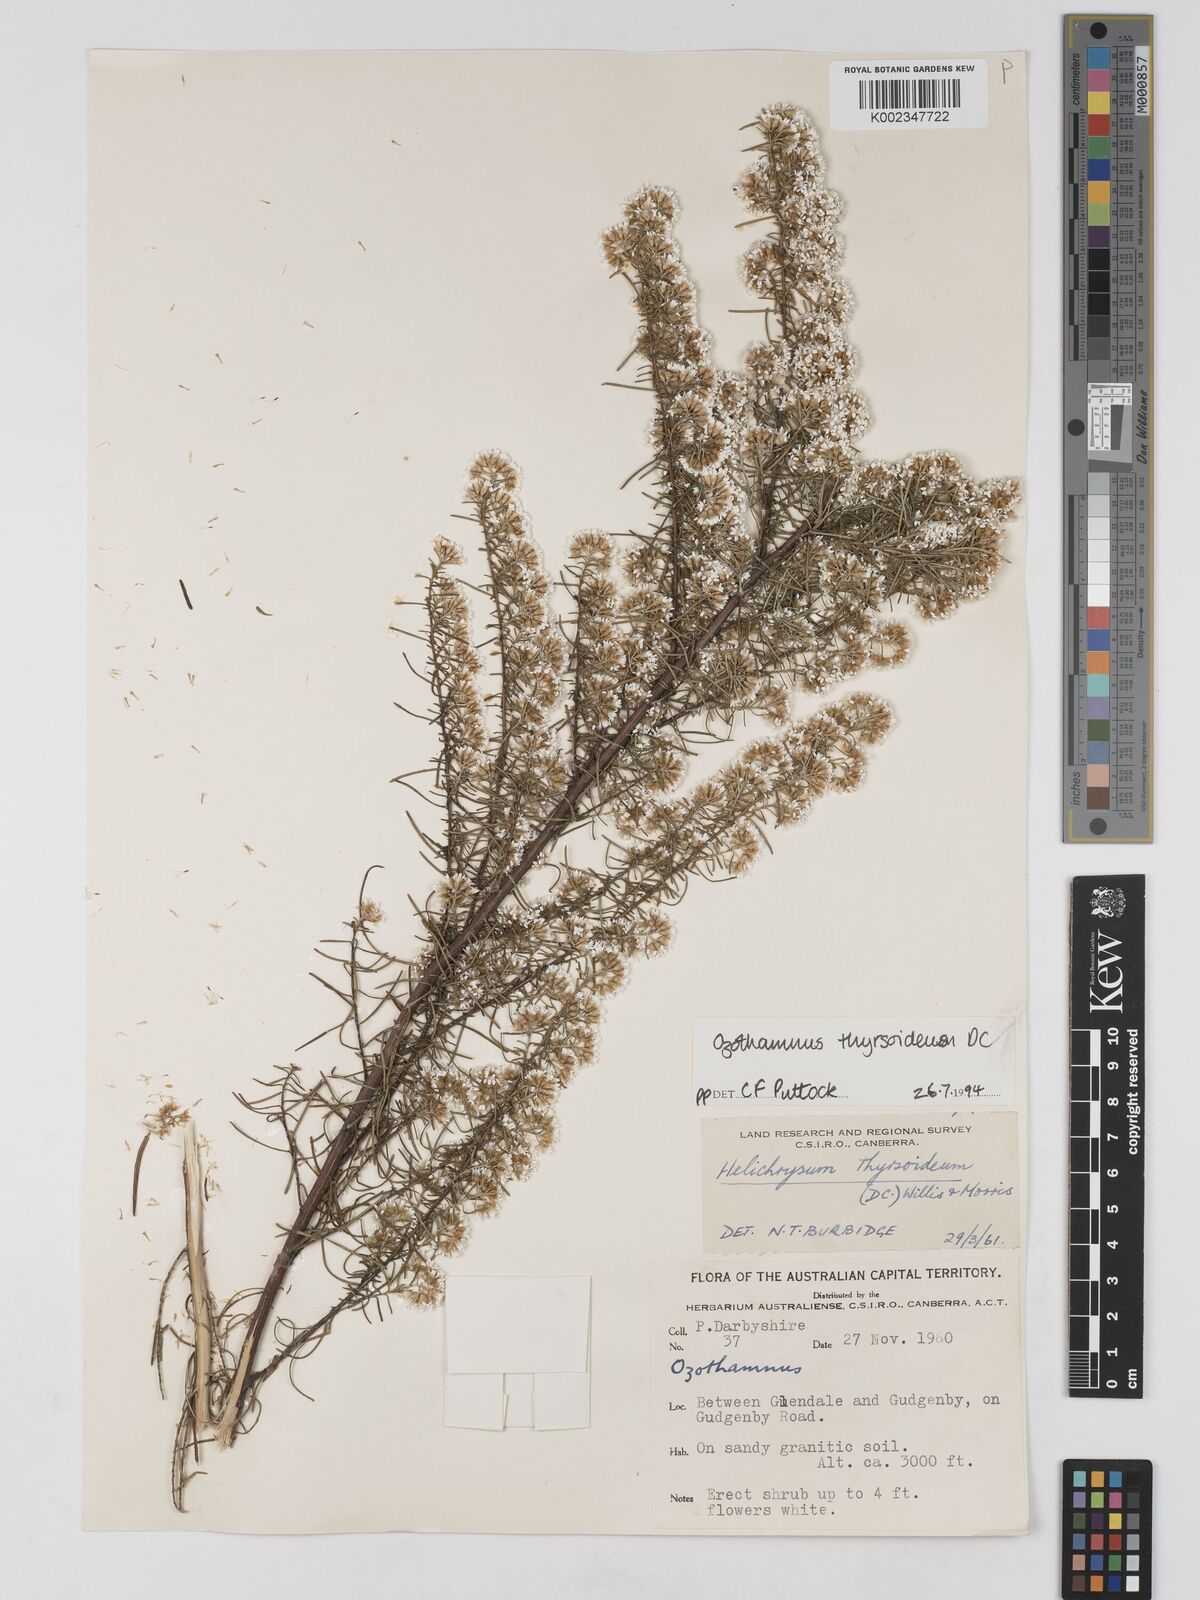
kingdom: Plantae
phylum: Tracheophyta
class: Magnoliopsida
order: Asterales
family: Asteraceae
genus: Ozothamnus
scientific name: Ozothamnus thyrsoideus
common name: Snow-in-summer
